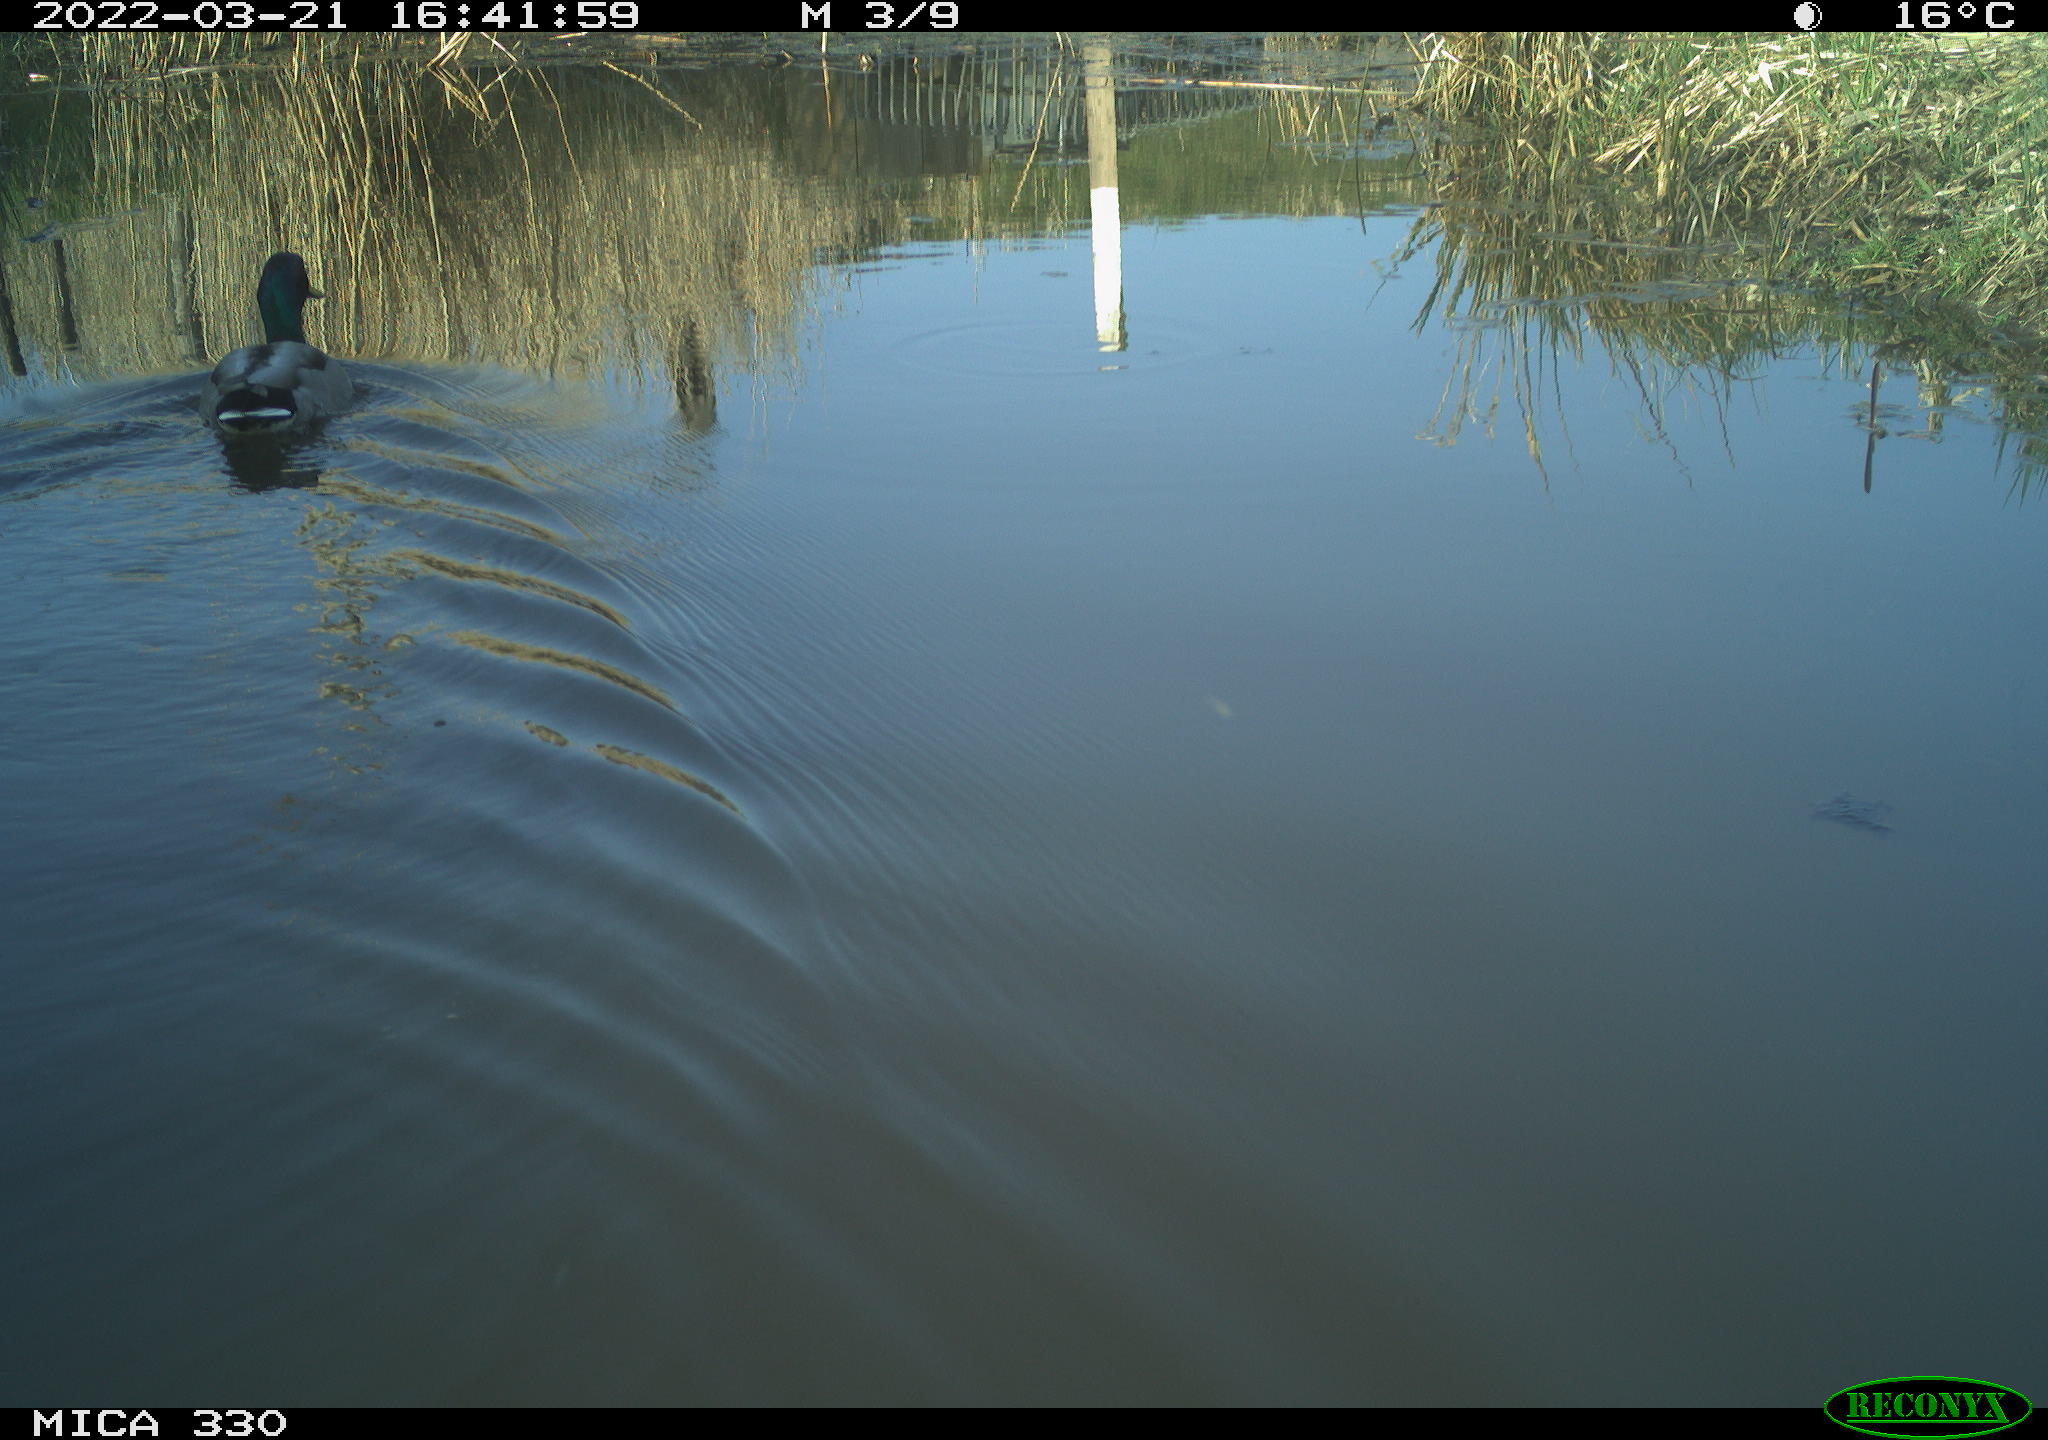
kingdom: Animalia
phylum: Chordata
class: Aves
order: Anseriformes
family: Anatidae
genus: Anas
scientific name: Anas platyrhynchos
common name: Mallard
